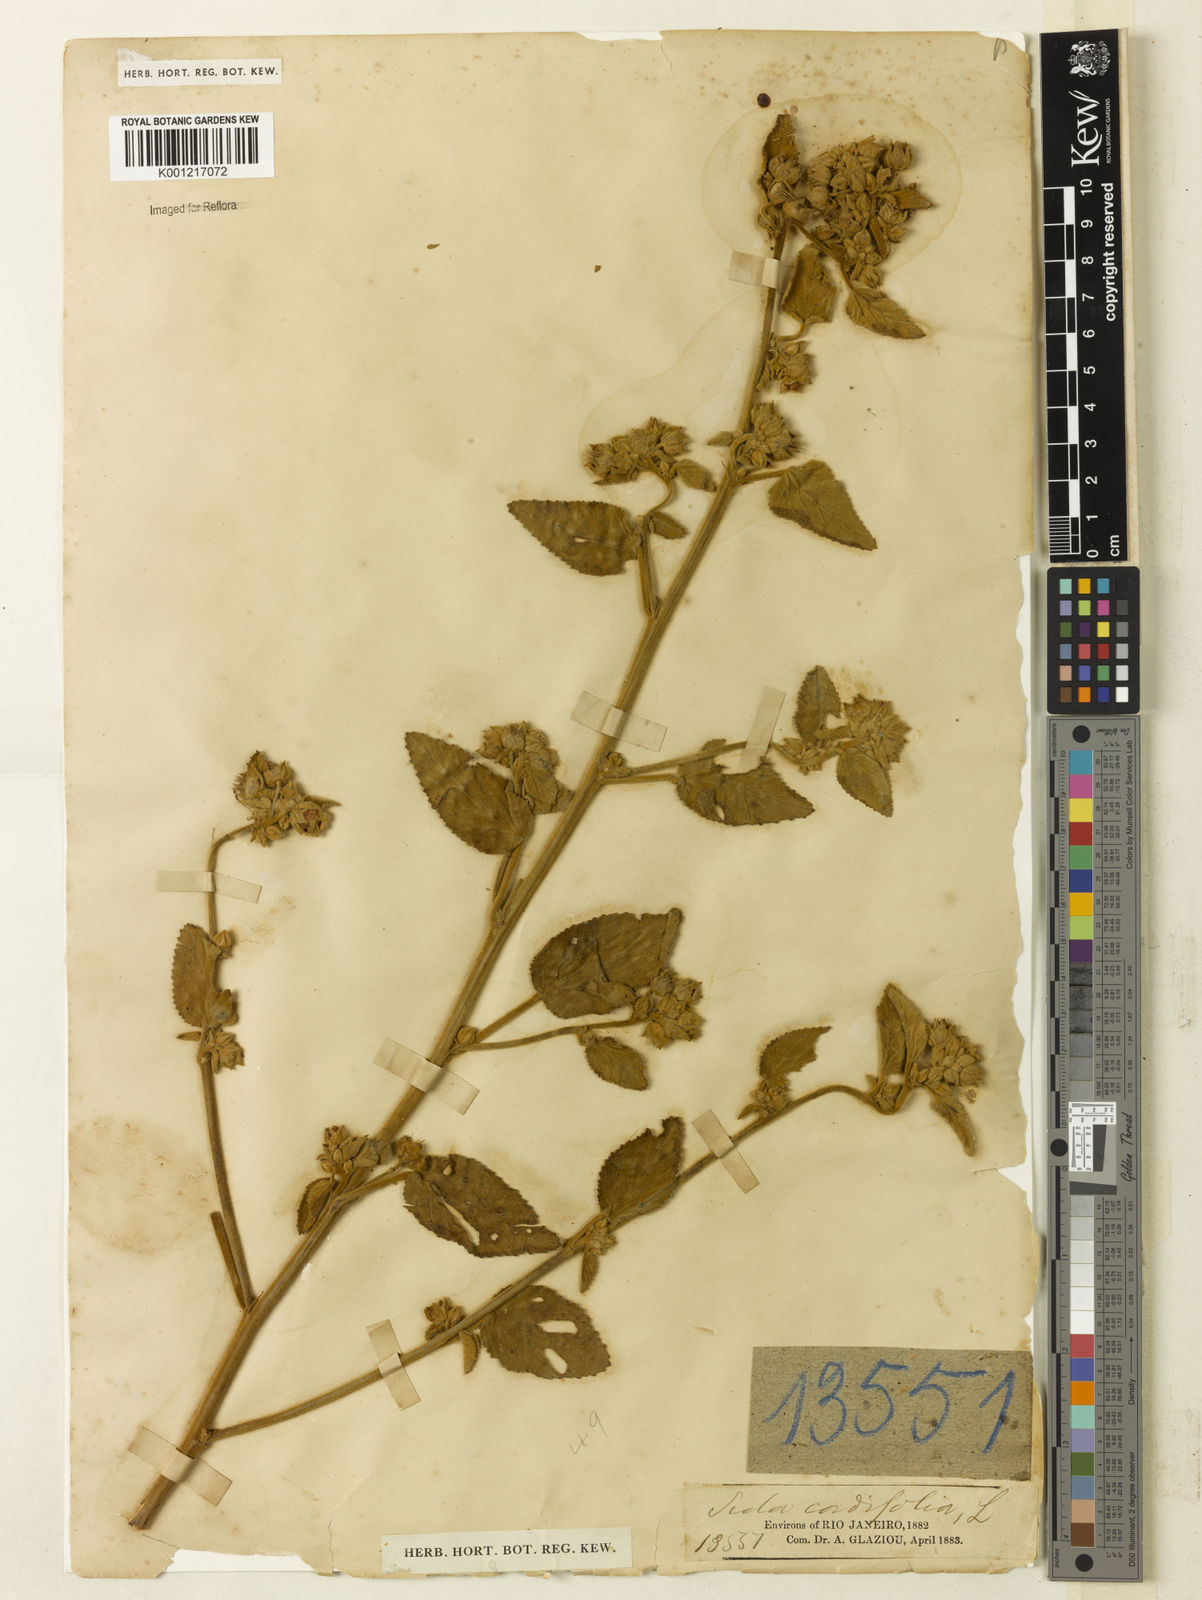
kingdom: Plantae
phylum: Tracheophyta
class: Magnoliopsida
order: Malvales
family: Malvaceae
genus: Sida
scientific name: Sida cordifolia
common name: Ilima
